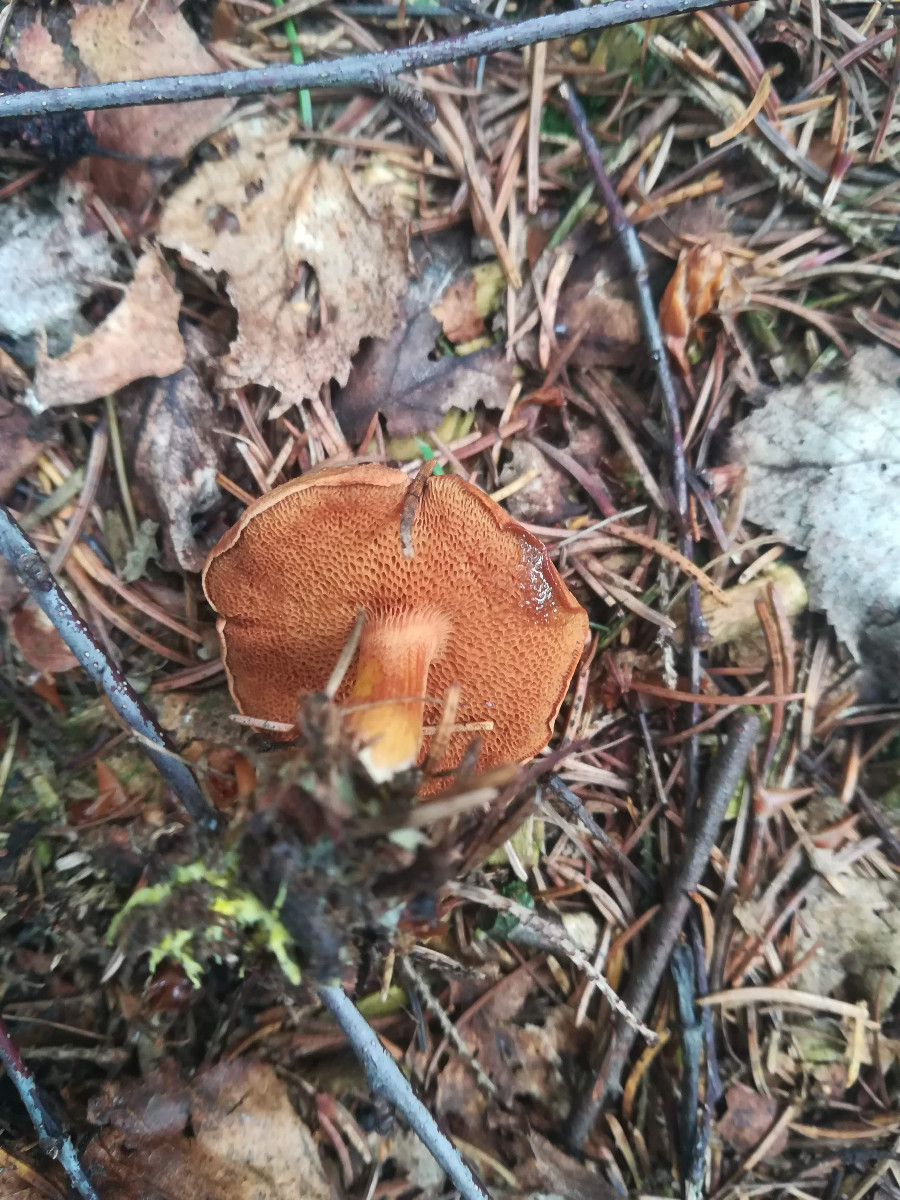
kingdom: Fungi
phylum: Basidiomycota
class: Agaricomycetes
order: Boletales
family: Boletaceae
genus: Chalciporus
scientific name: Chalciporus piperatus
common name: peberrørhat
